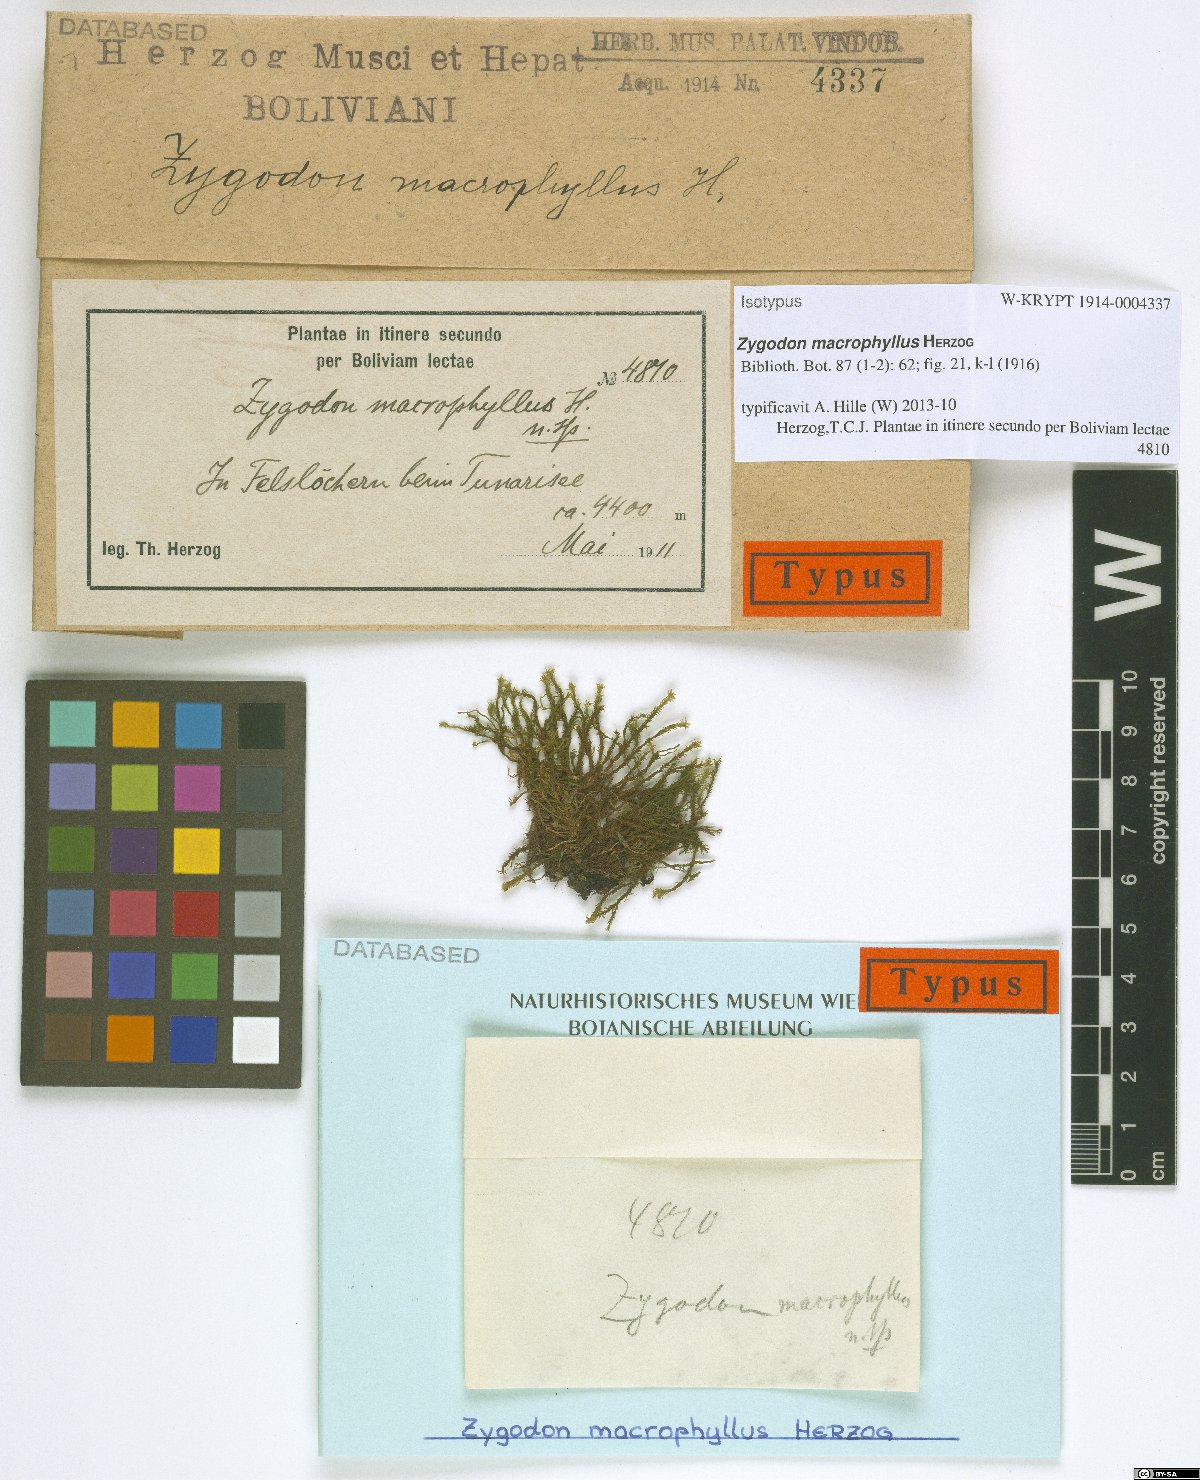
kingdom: Plantae
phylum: Bryophyta
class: Bryopsida
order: Orthotrichales
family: Orthotrichaceae
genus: Zygodon
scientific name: Zygodon macrophyllus
